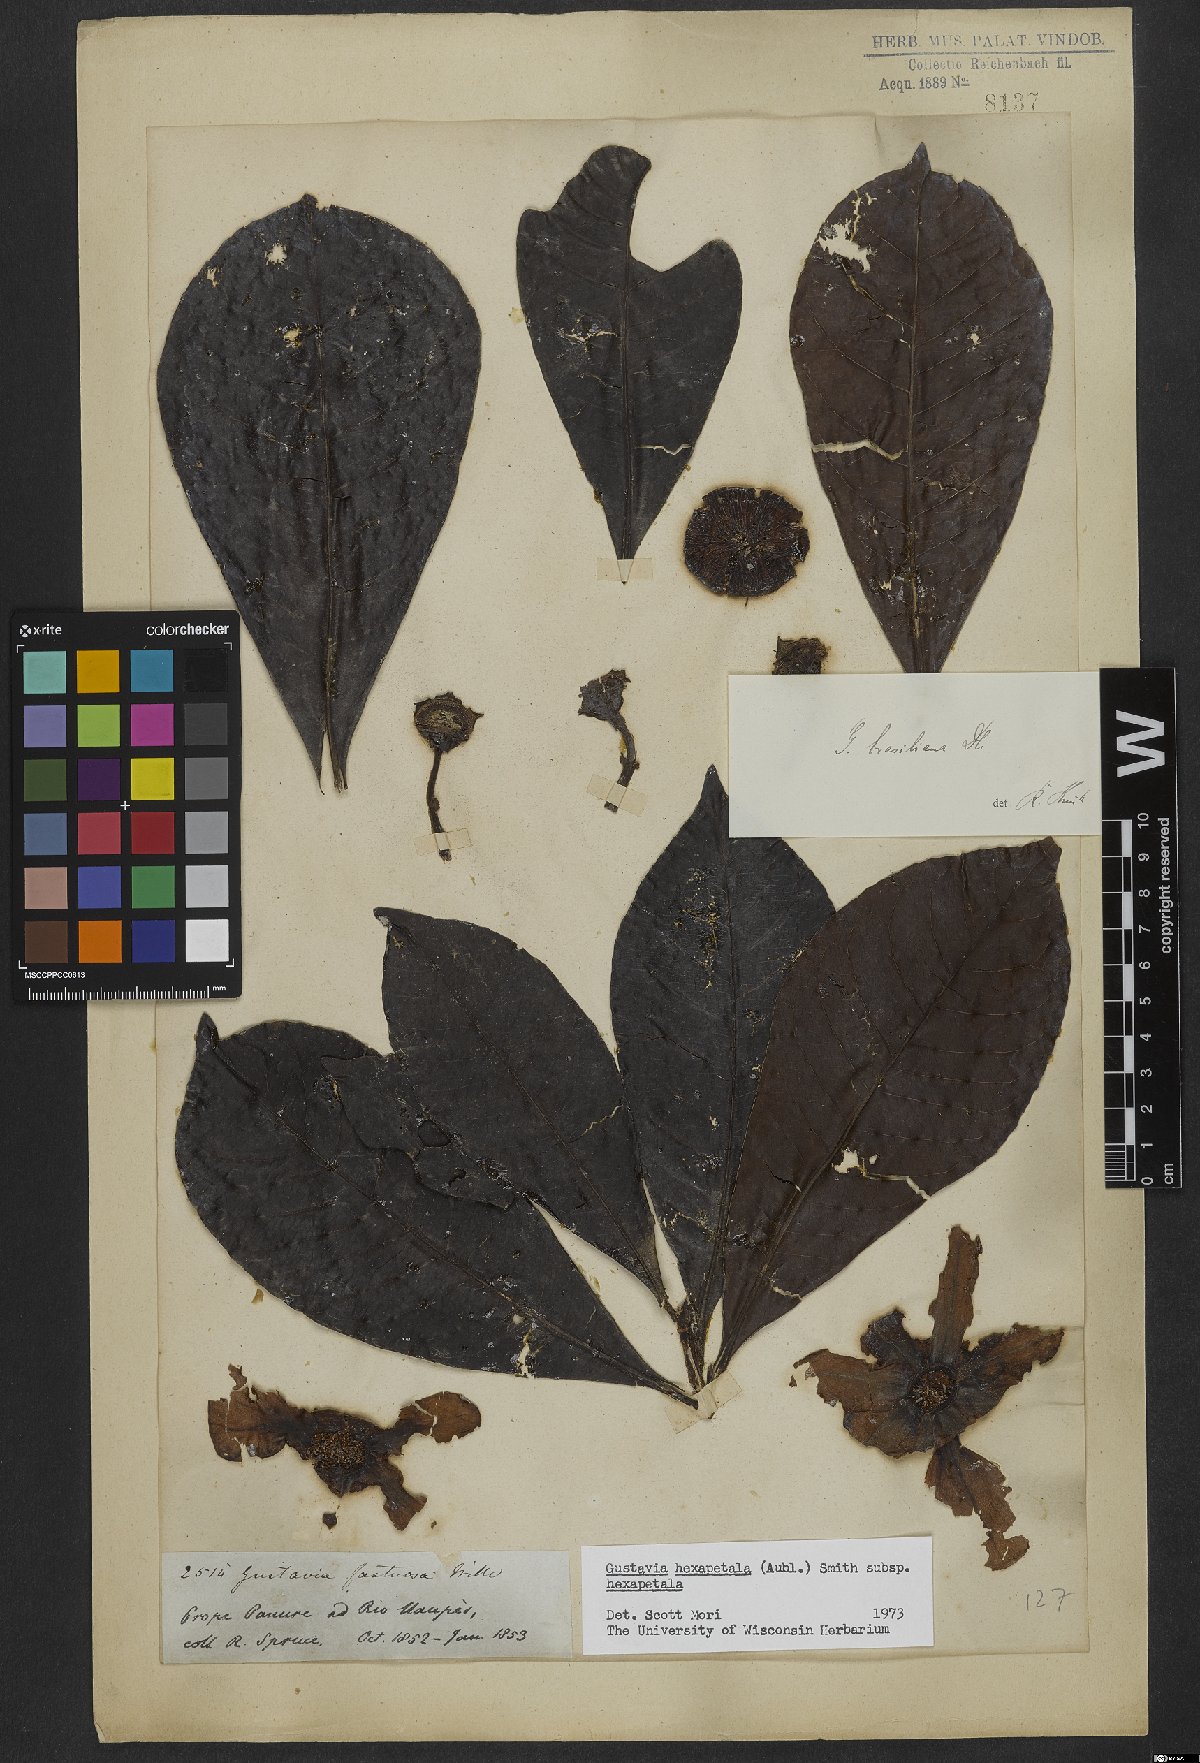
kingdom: Plantae
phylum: Tracheophyta
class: Magnoliopsida
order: Ericales
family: Lecythidaceae
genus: Gustavia
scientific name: Gustavia hexapetala
